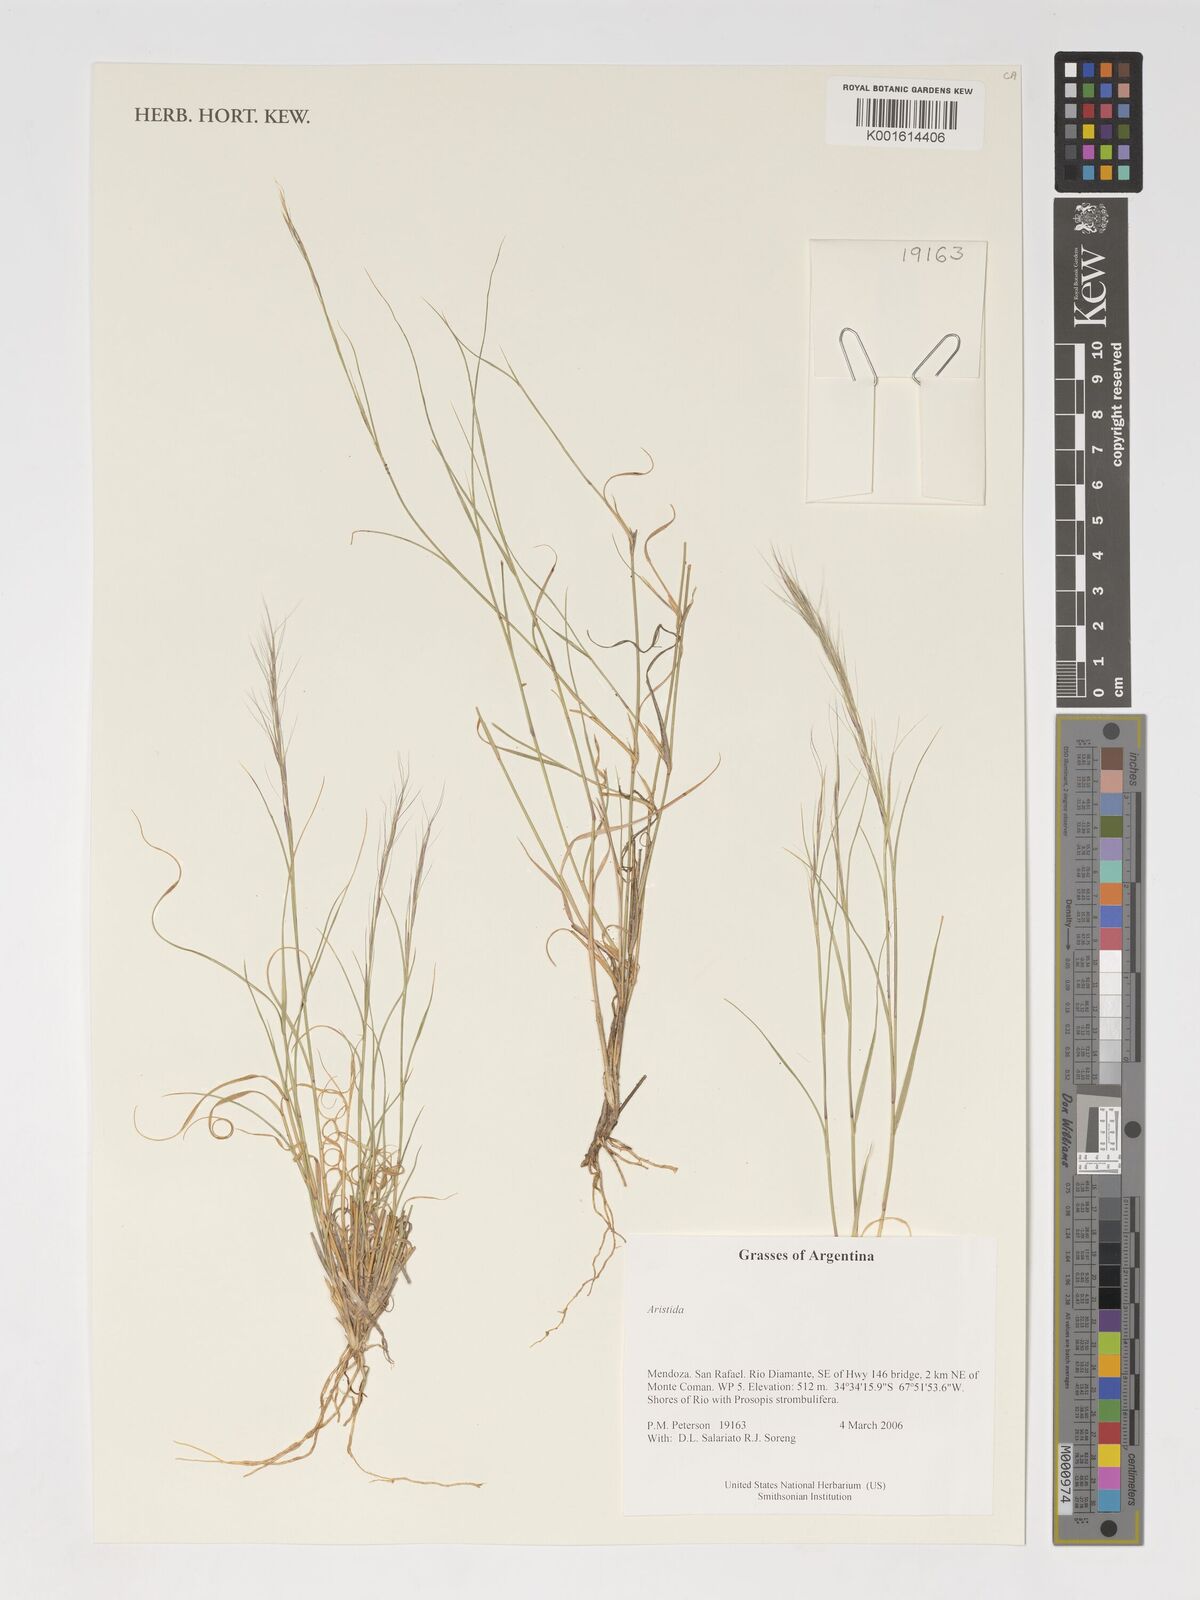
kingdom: Plantae
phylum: Tracheophyta
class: Liliopsida
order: Poales
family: Poaceae
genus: Aristida
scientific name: Aristida
